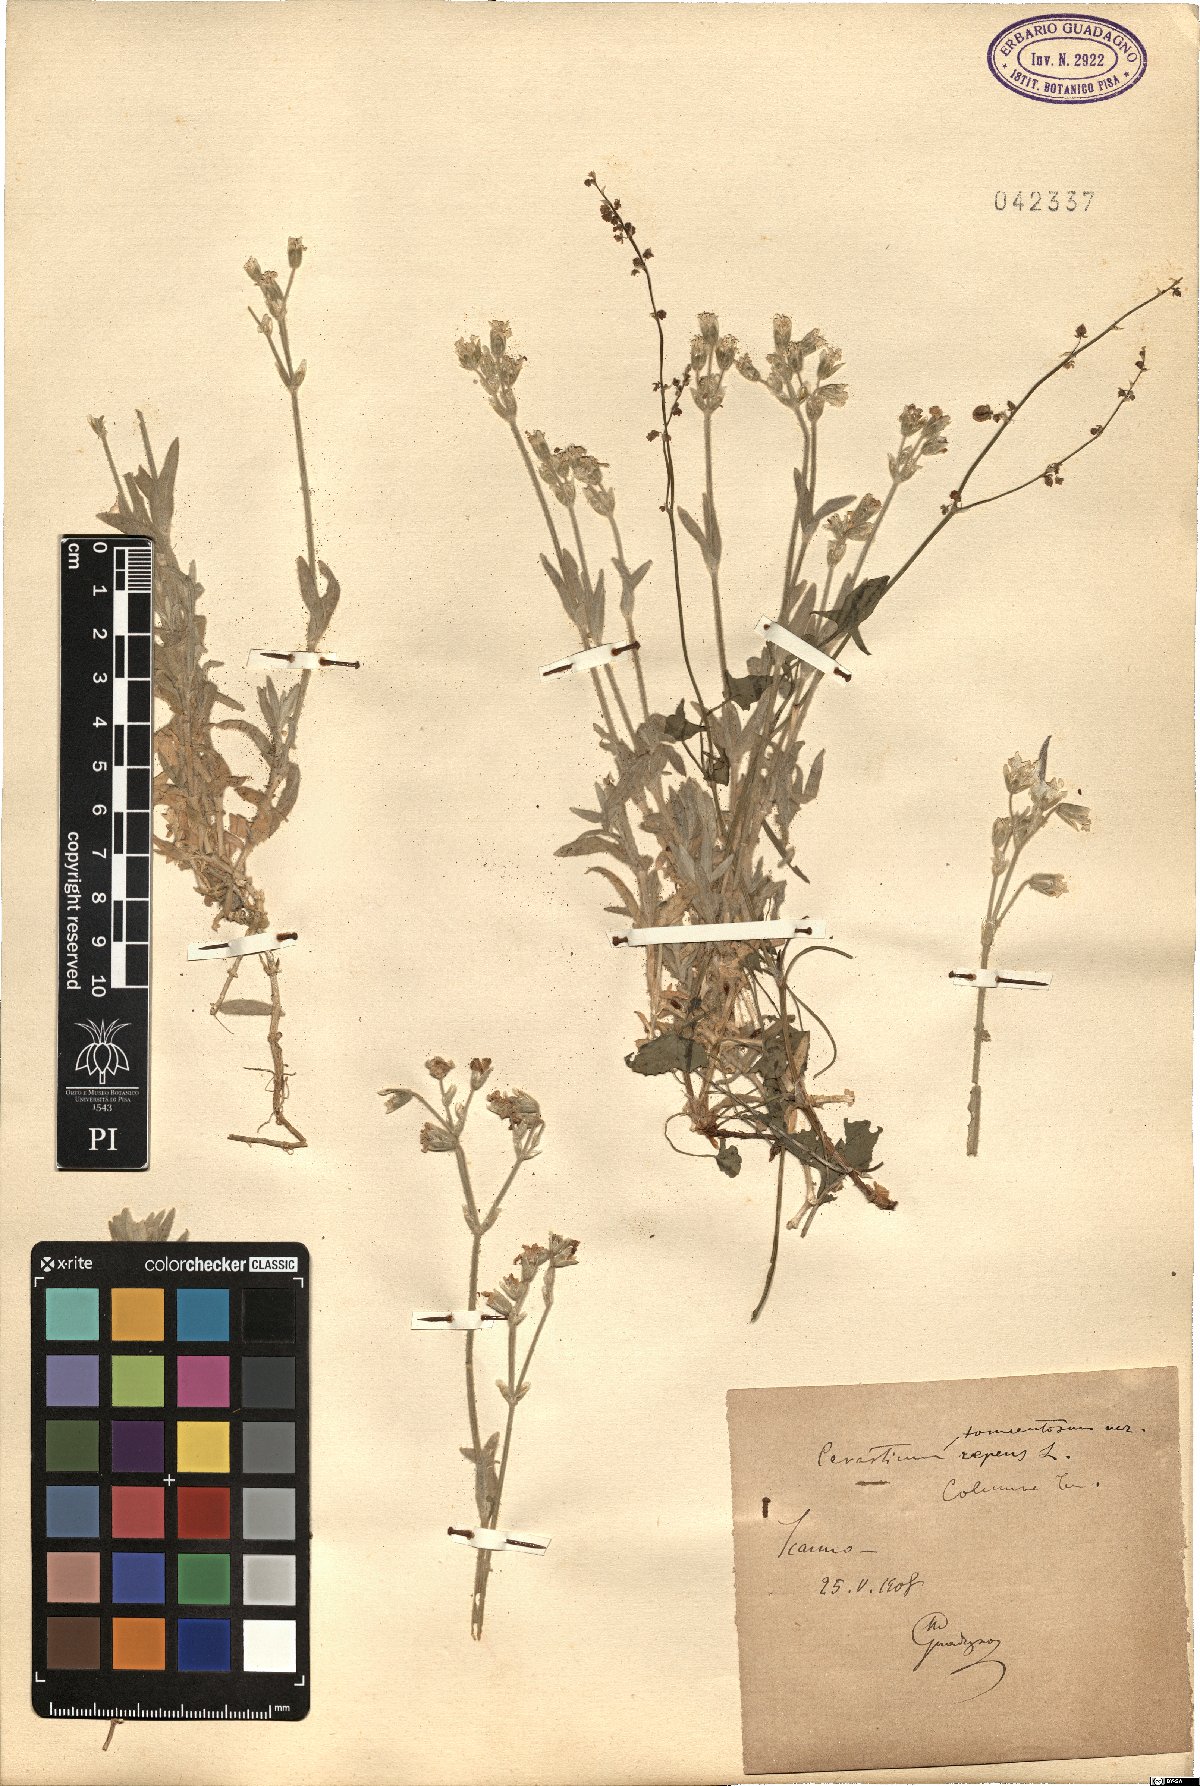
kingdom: Plantae
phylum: Tracheophyta
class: Magnoliopsida
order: Caryophyllales
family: Caryophyllaceae
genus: Cerastium
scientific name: Cerastium tomentosum
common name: Snow-in-summer
